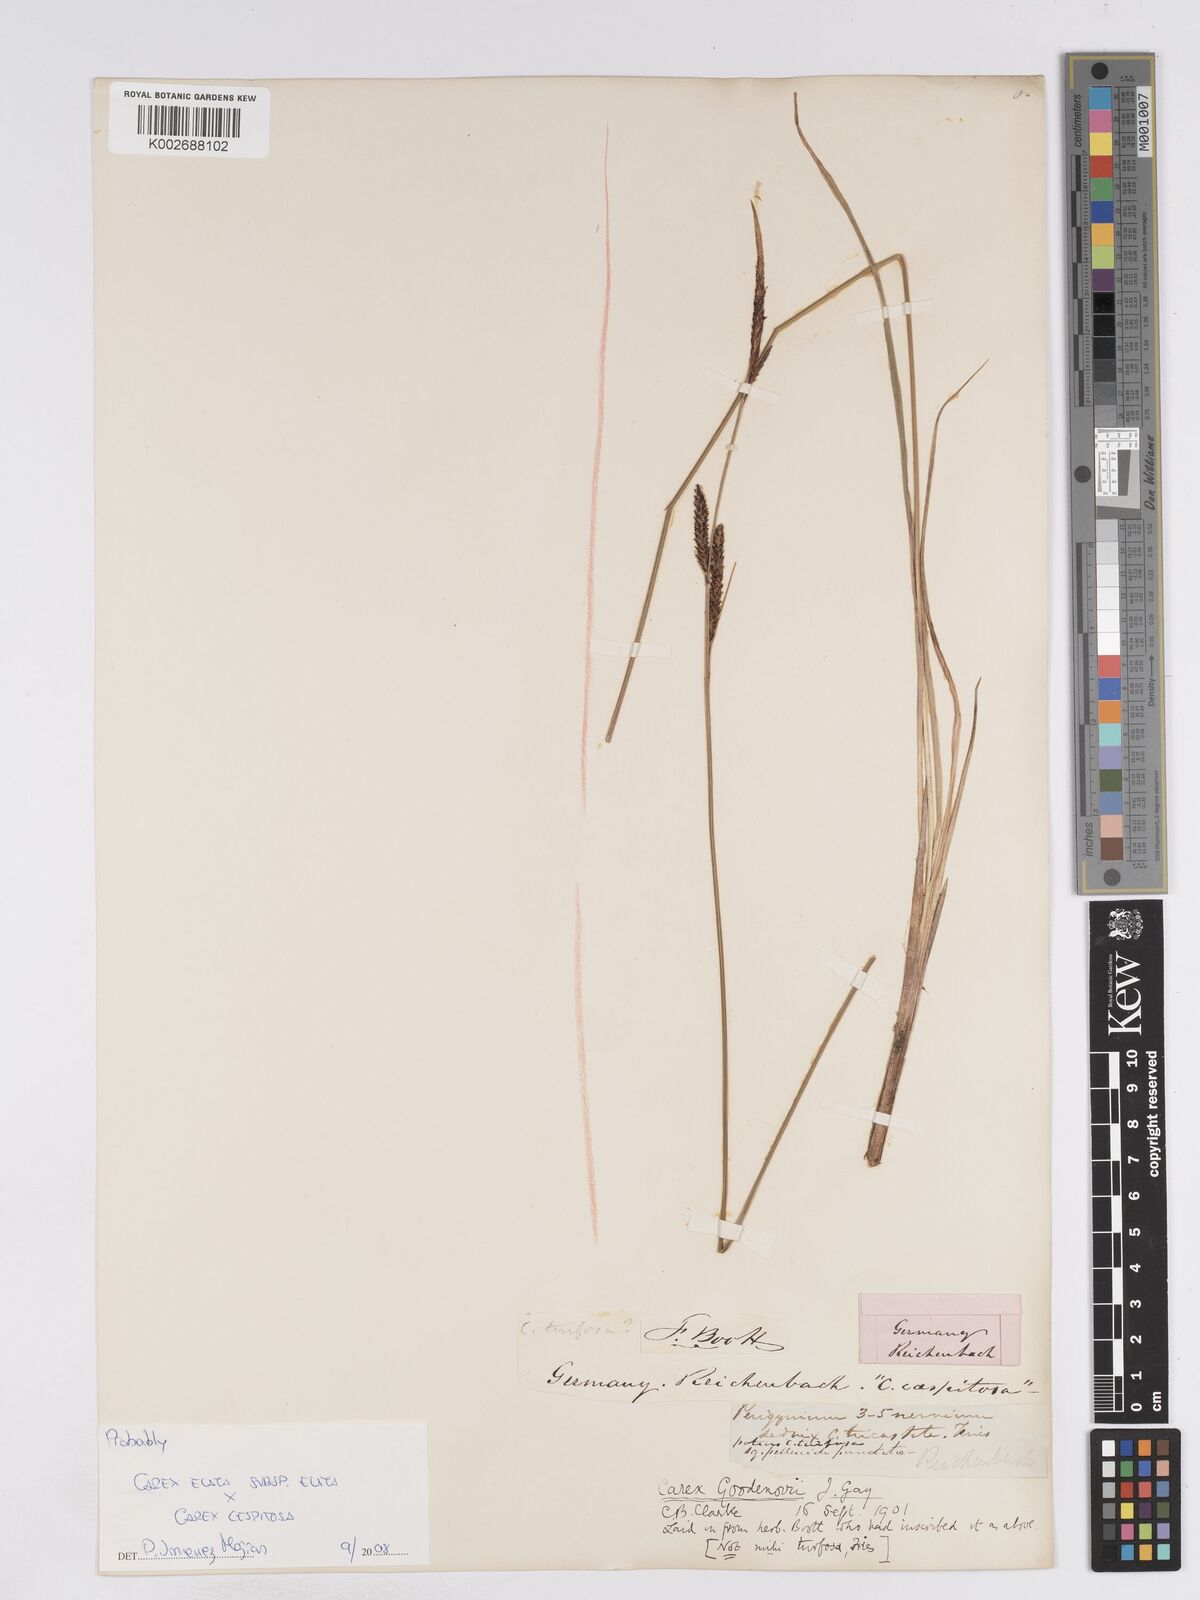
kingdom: Plantae
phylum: Tracheophyta
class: Liliopsida
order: Poales
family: Cyperaceae
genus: Carex
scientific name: Carex
